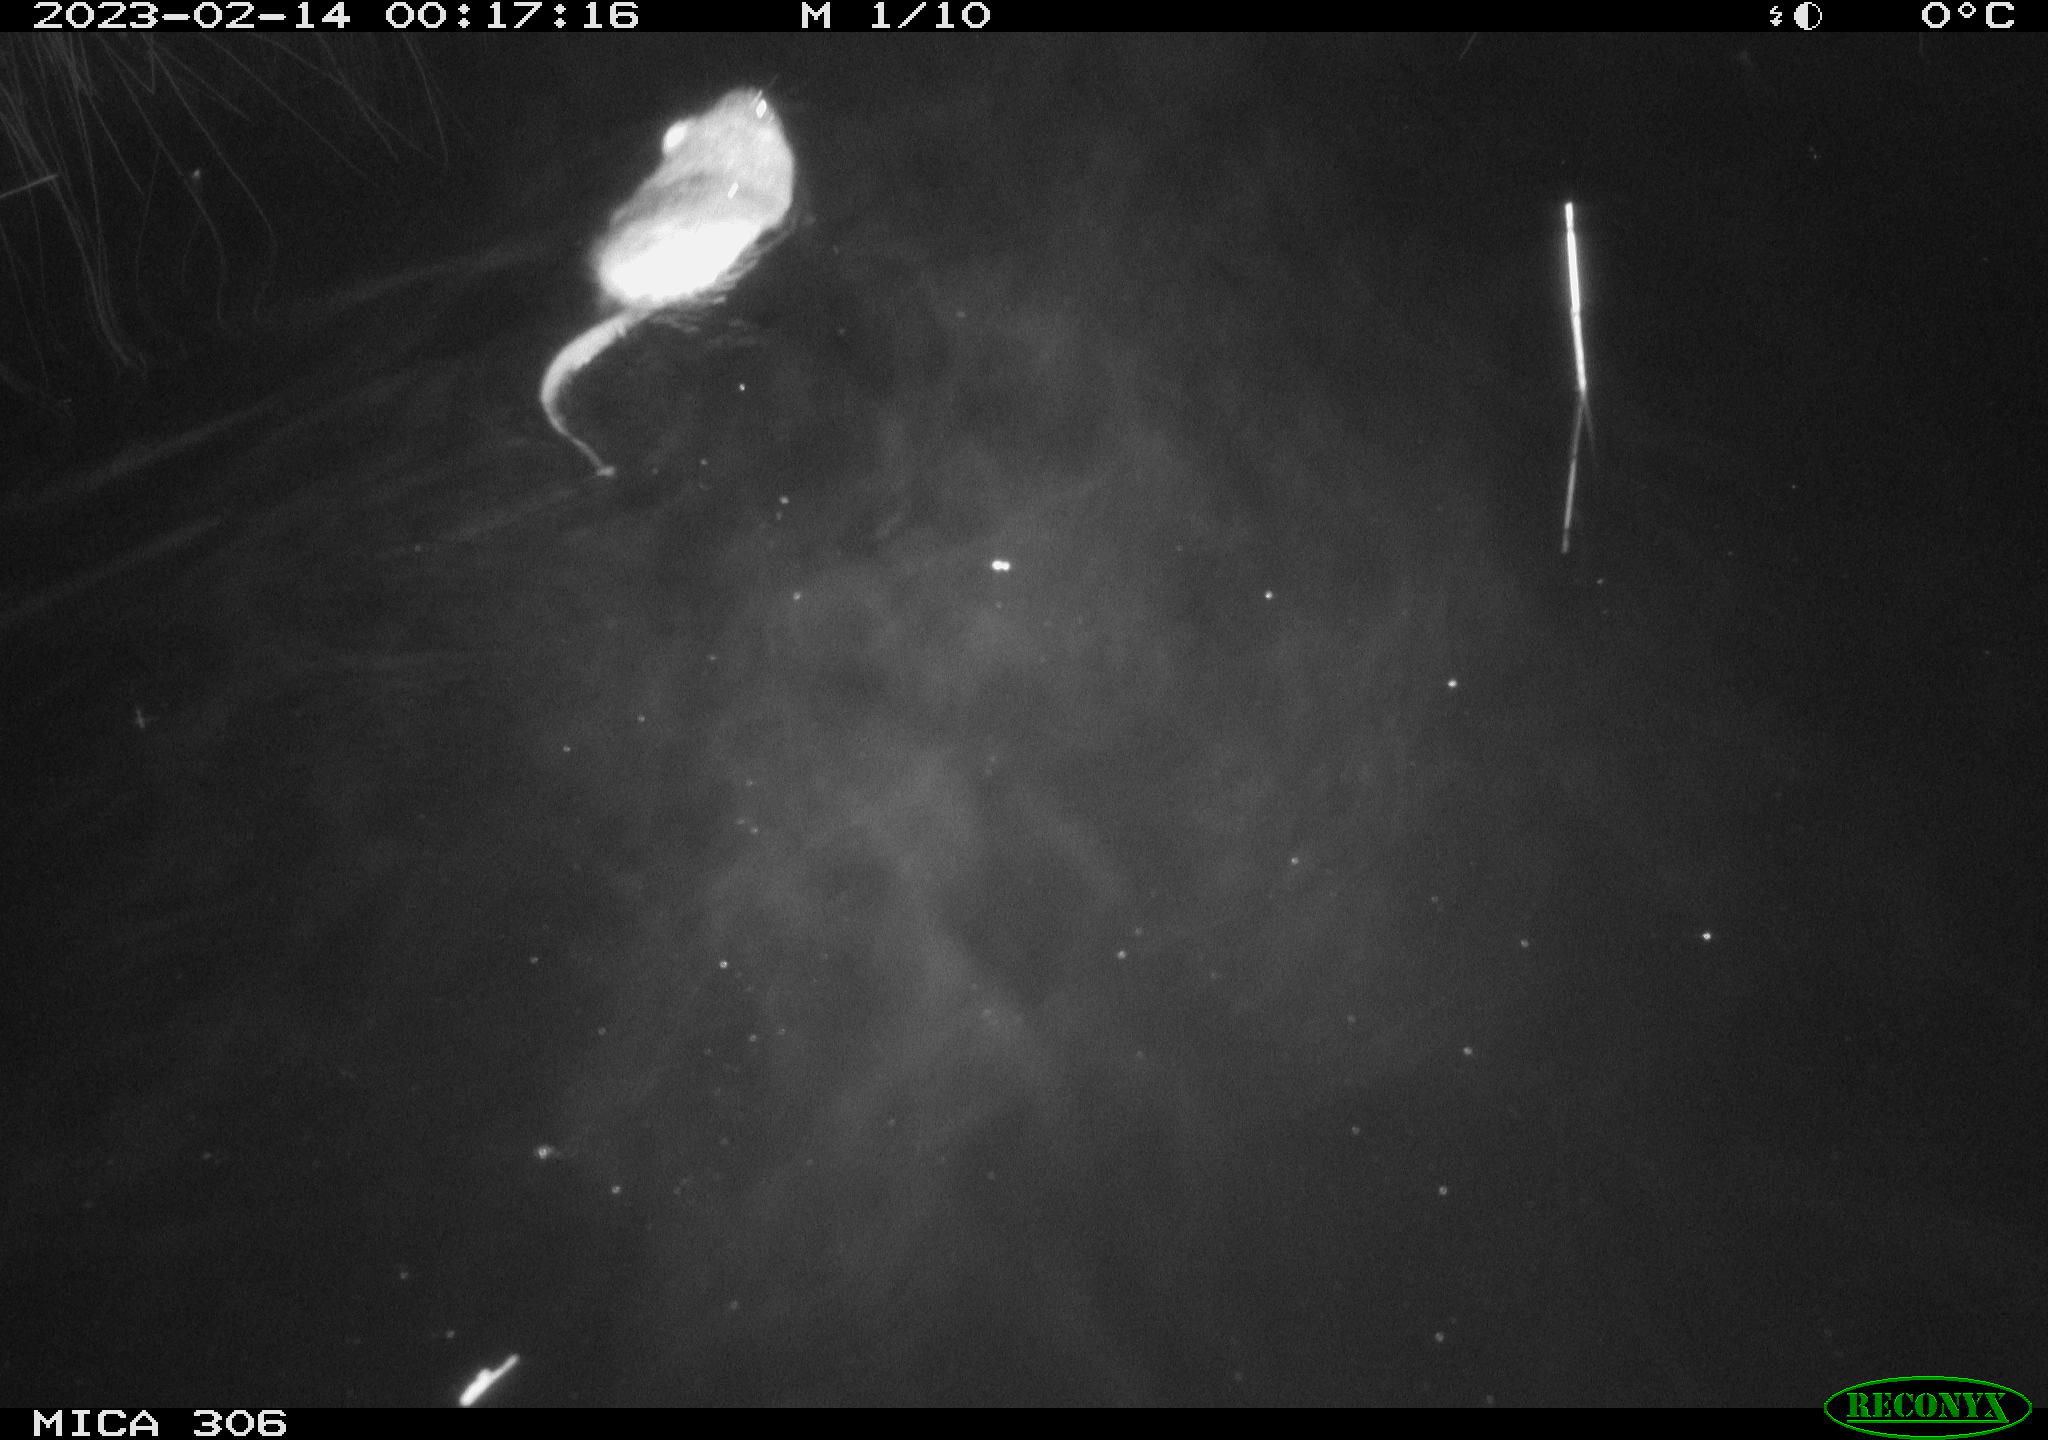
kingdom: Animalia
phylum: Chordata
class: Mammalia
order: Rodentia
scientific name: Rodentia
